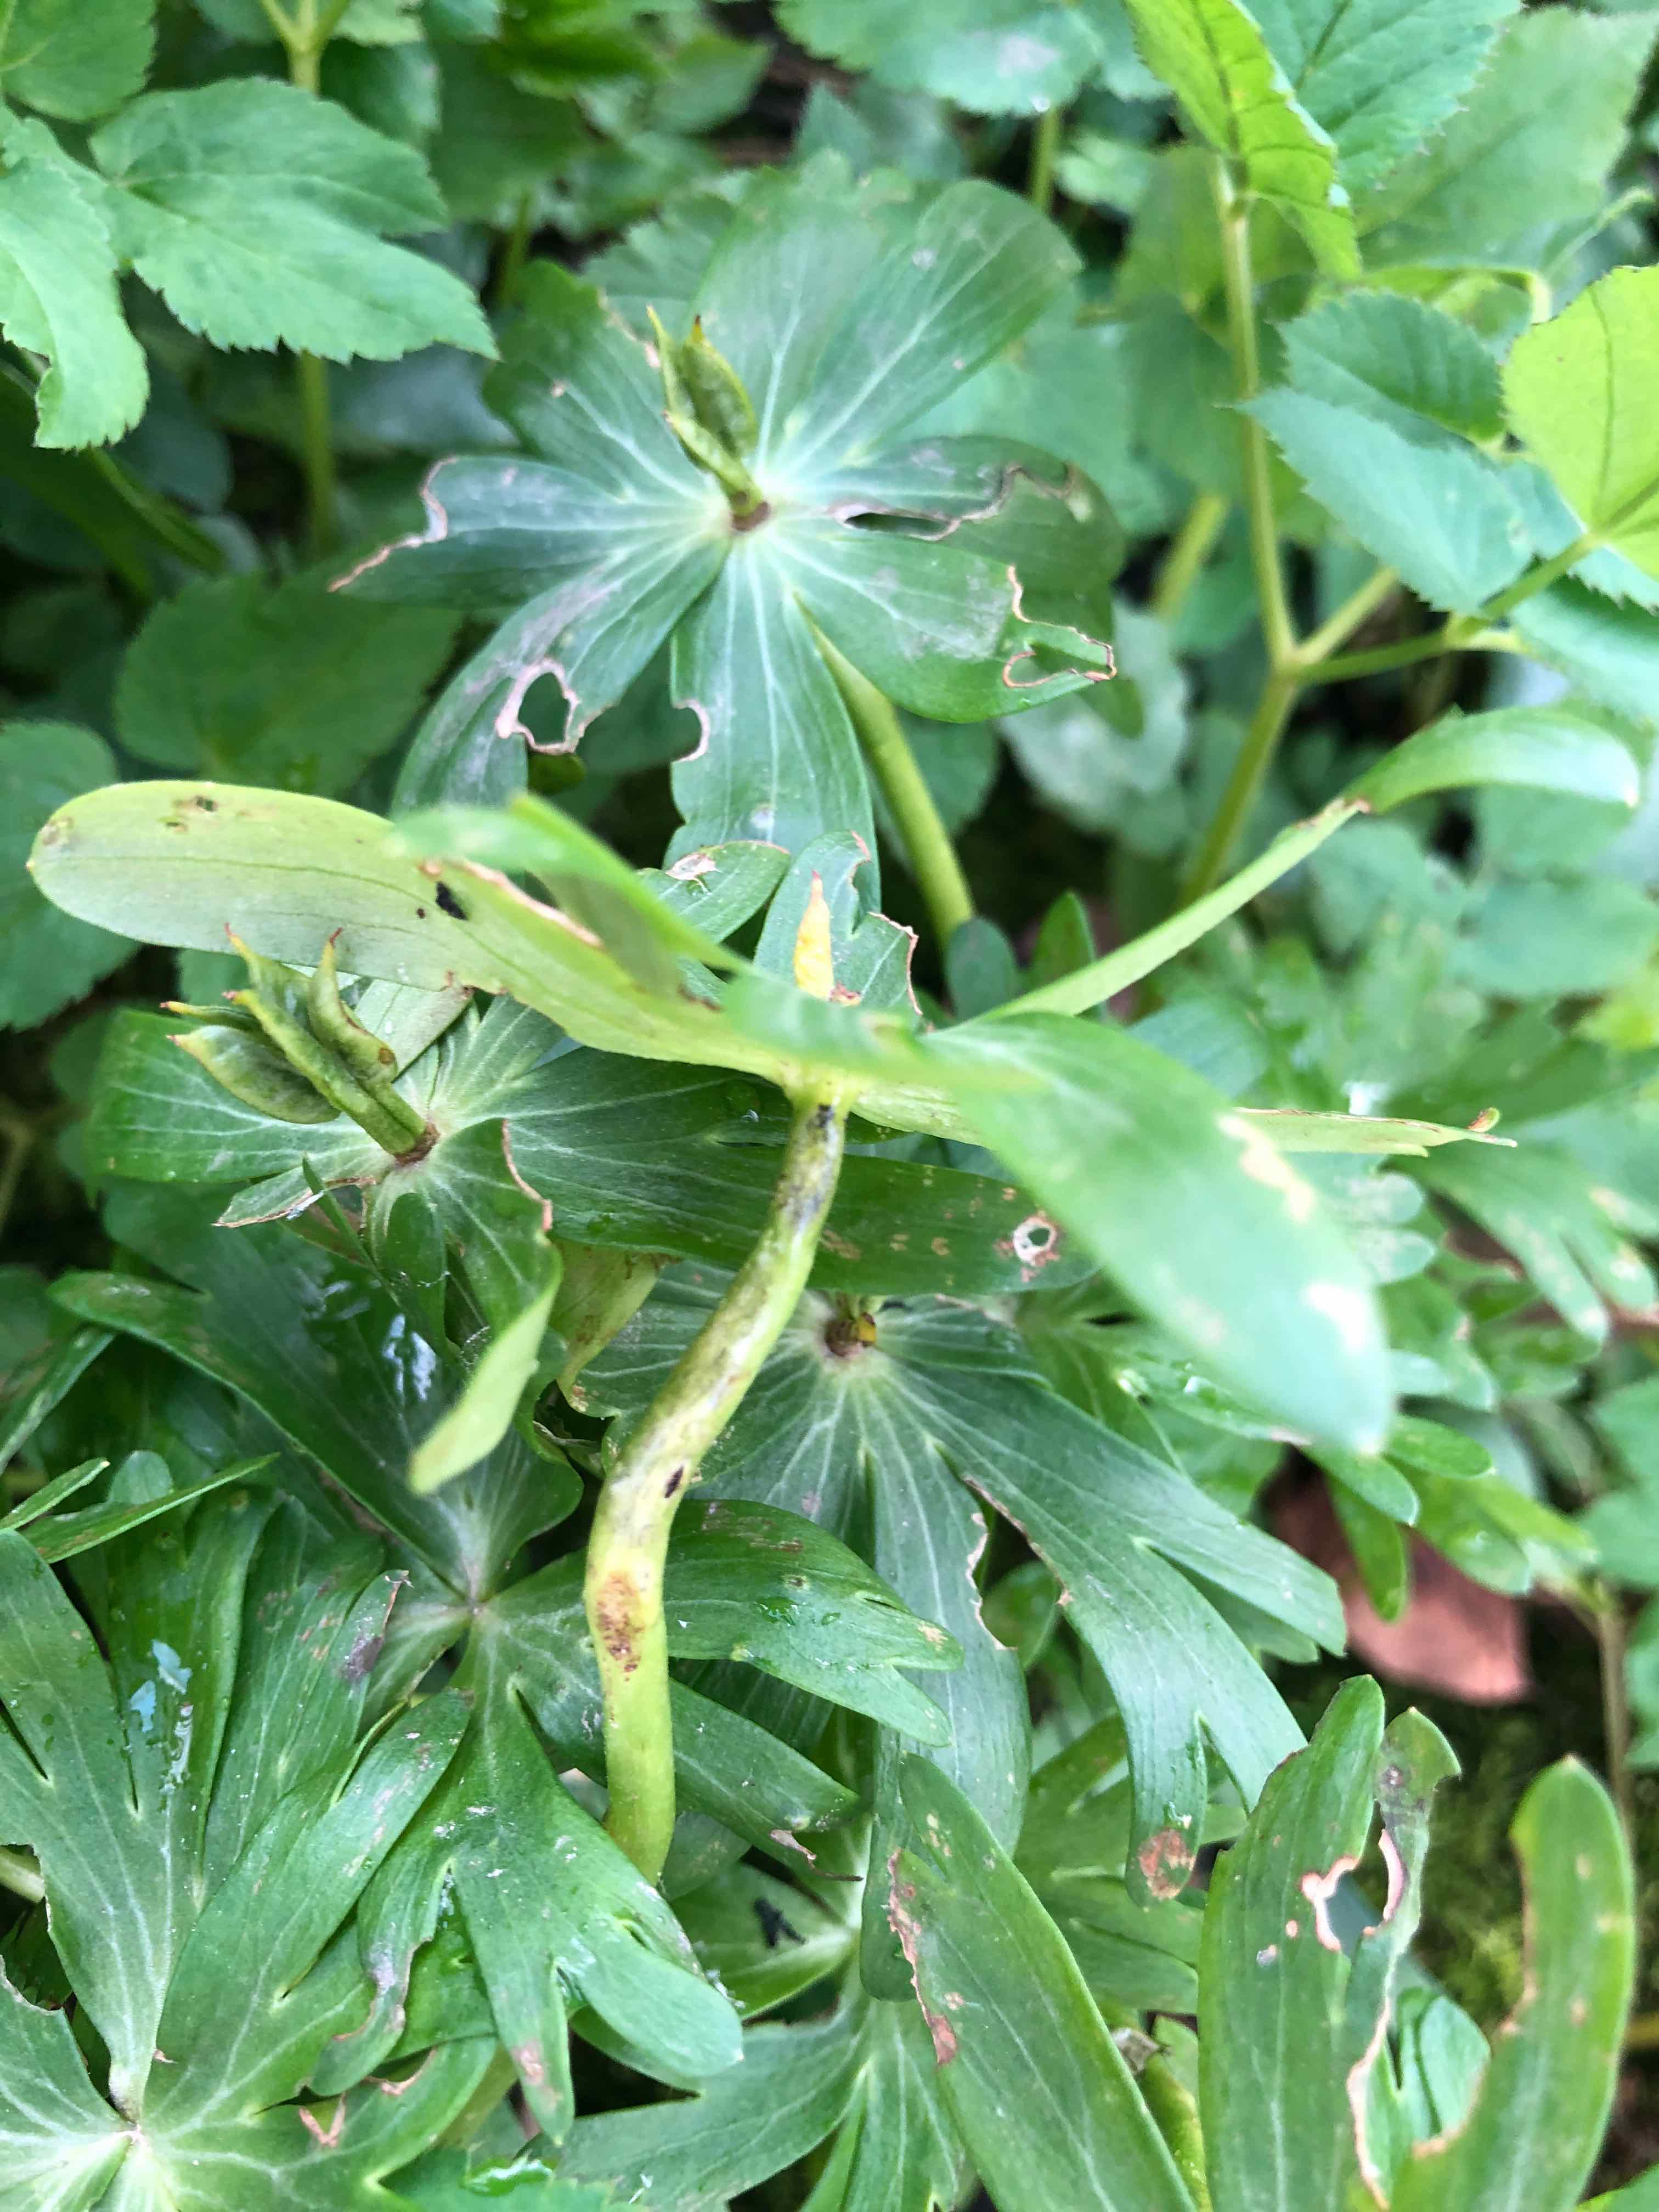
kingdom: Fungi
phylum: Basidiomycota
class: Ustilaginomycetes
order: Urocystidales
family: Urocystidaceae
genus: Urocystis
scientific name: Urocystis eranthidis
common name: erantis-brand
